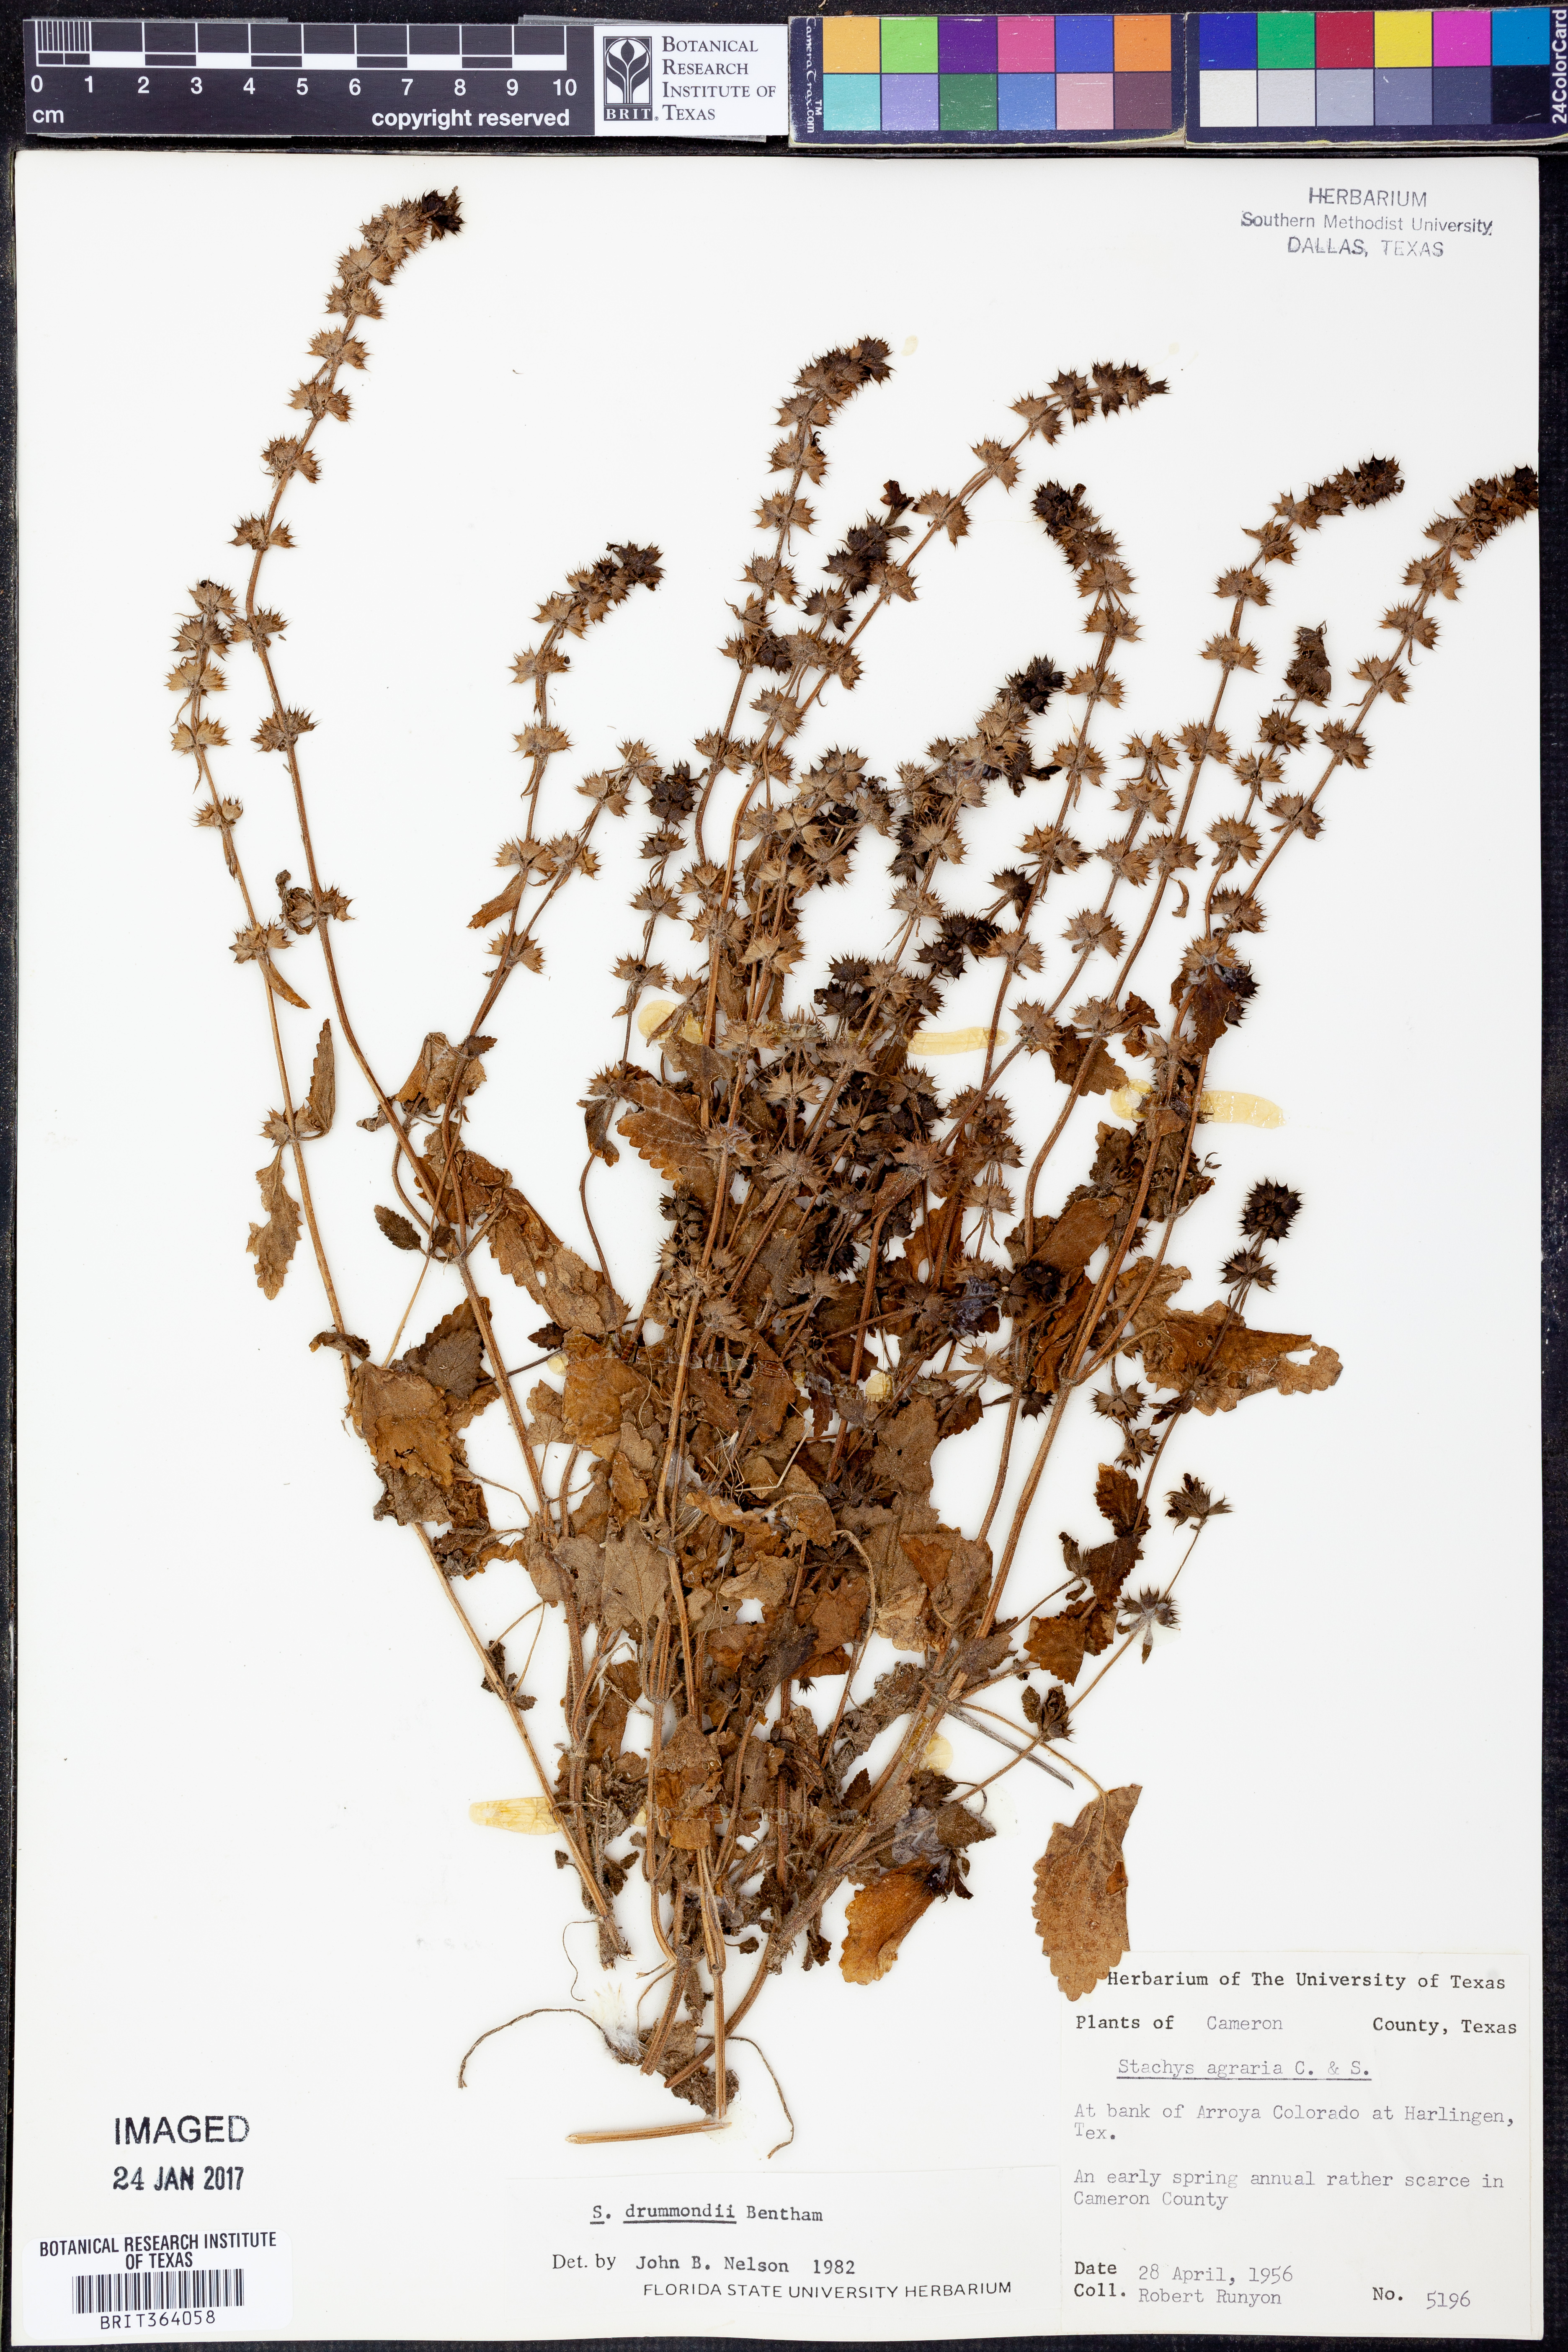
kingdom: Plantae
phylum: Tracheophyta
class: Magnoliopsida
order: Lamiales
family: Lamiaceae
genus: Stachys
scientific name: Stachys drummondii
